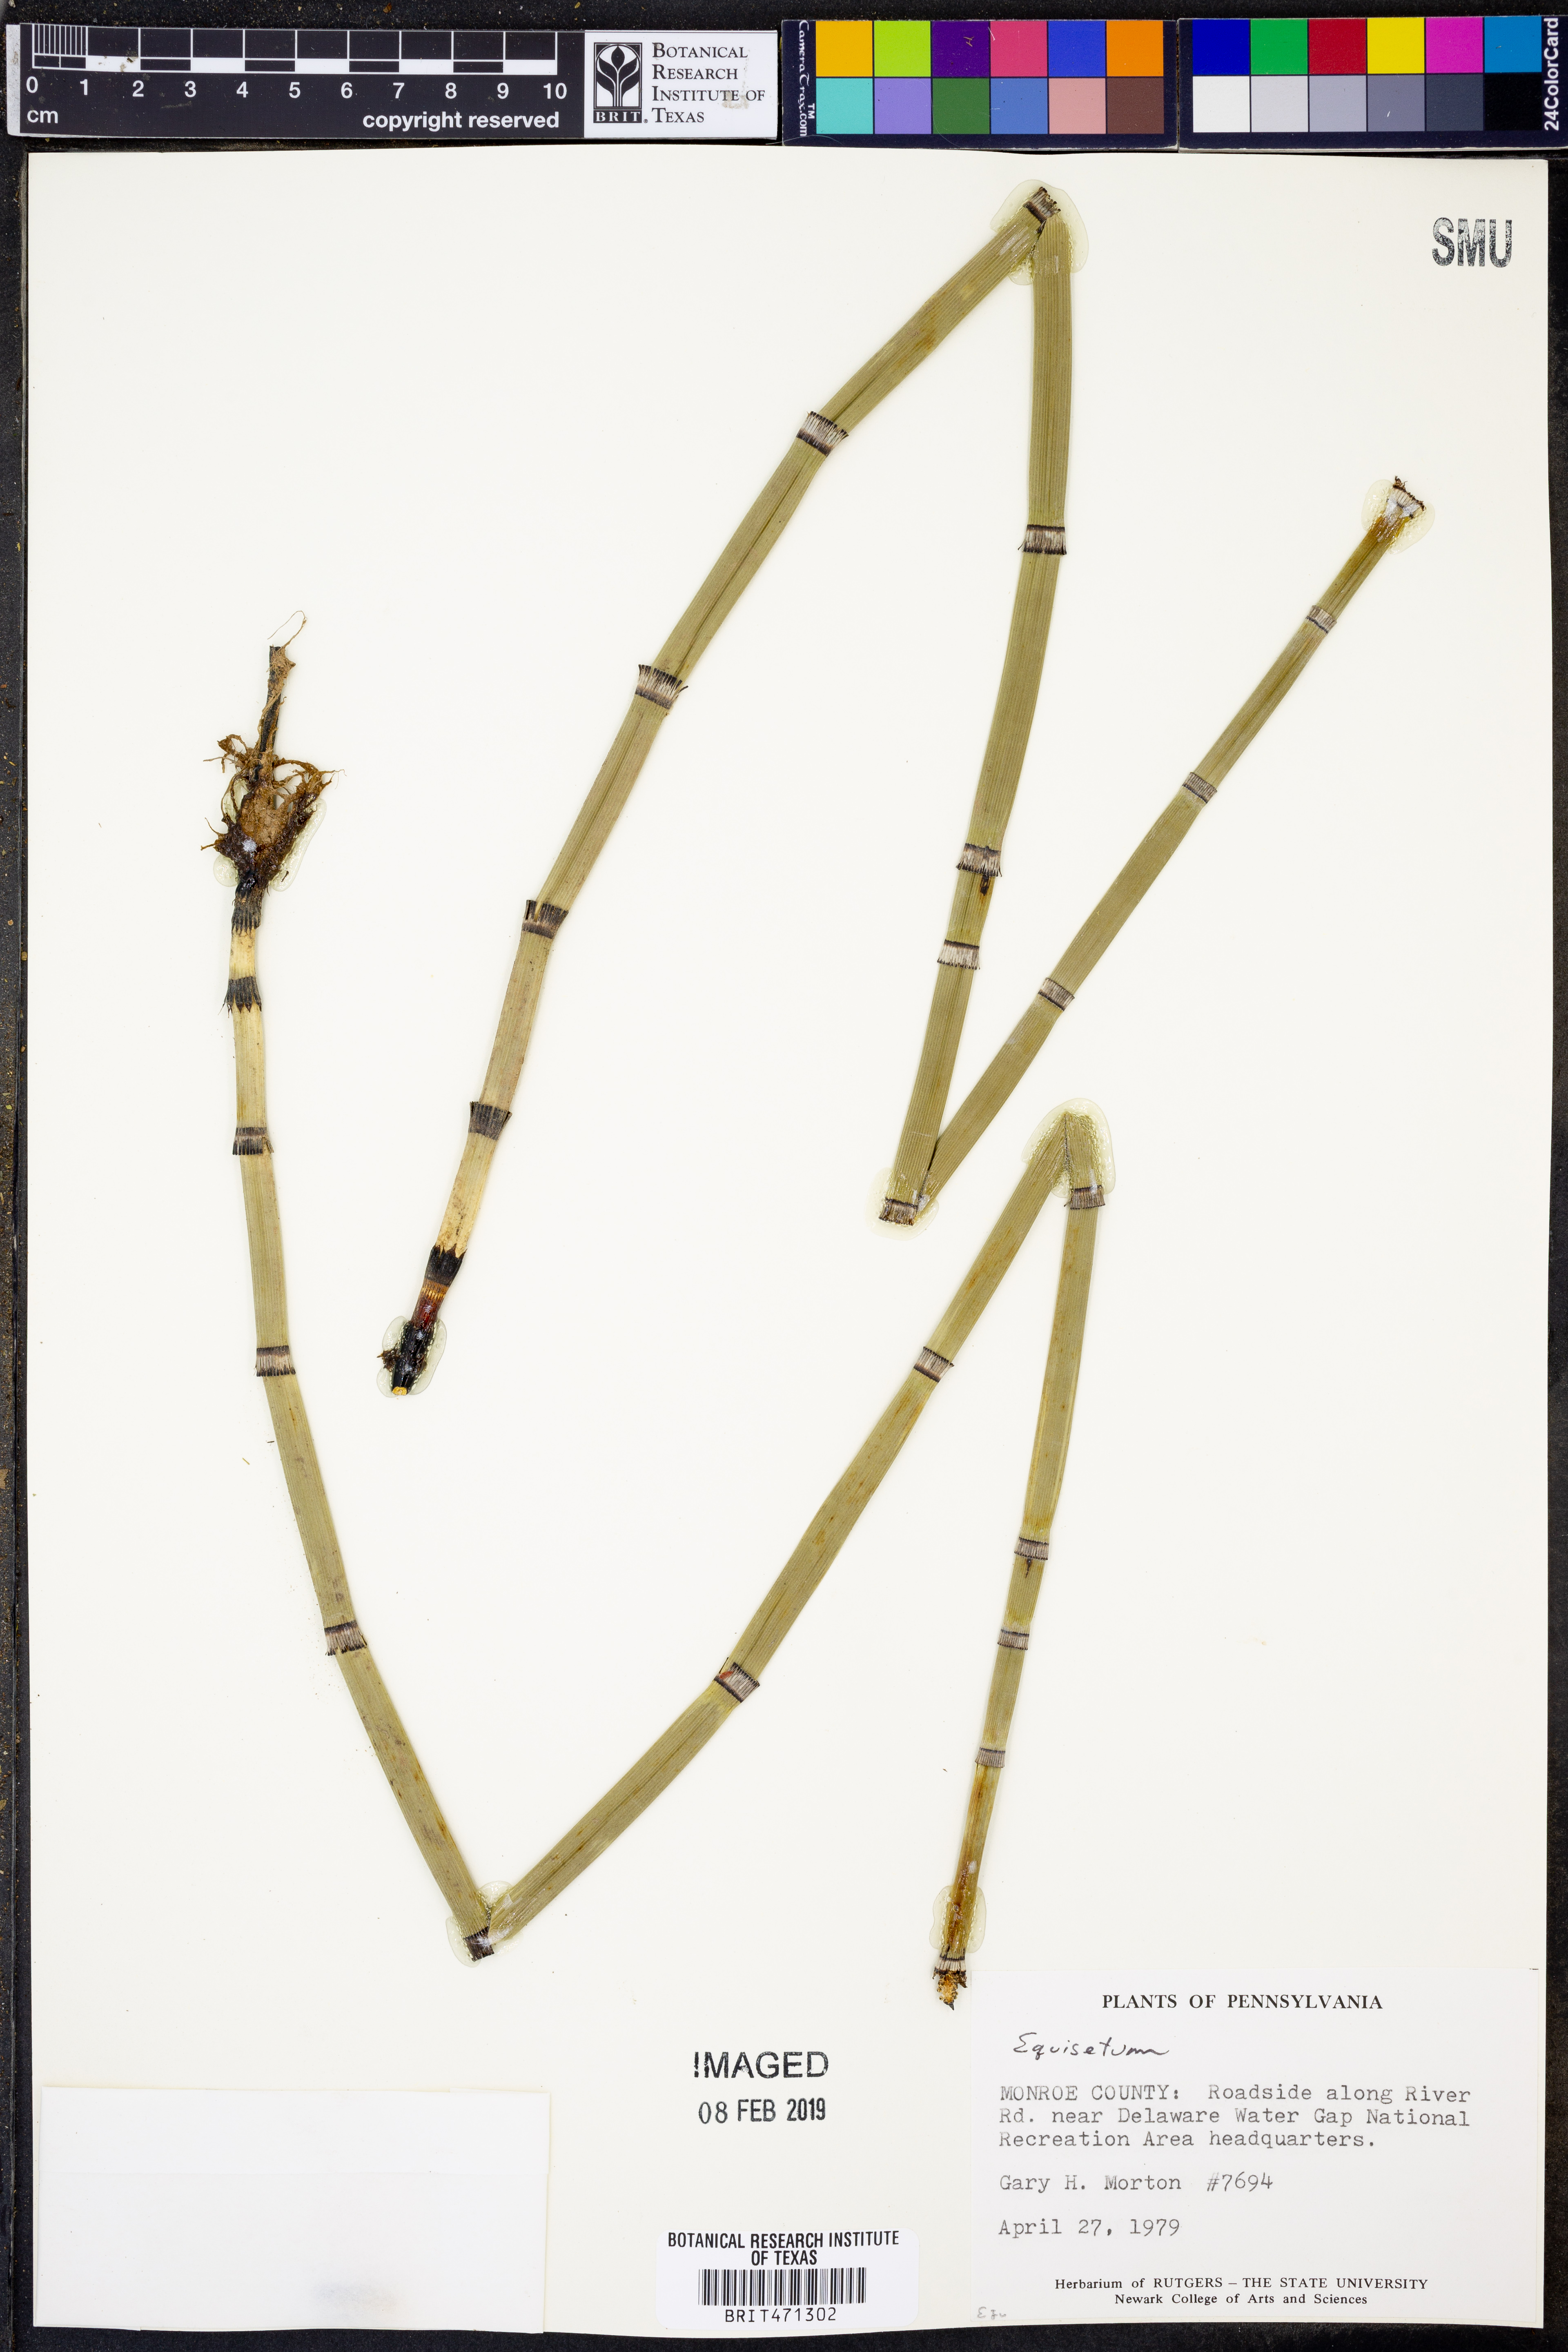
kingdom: Plantae
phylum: Tracheophyta
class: Polypodiopsida
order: Equisetales
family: Equisetaceae
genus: Equisetum
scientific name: Equisetum
